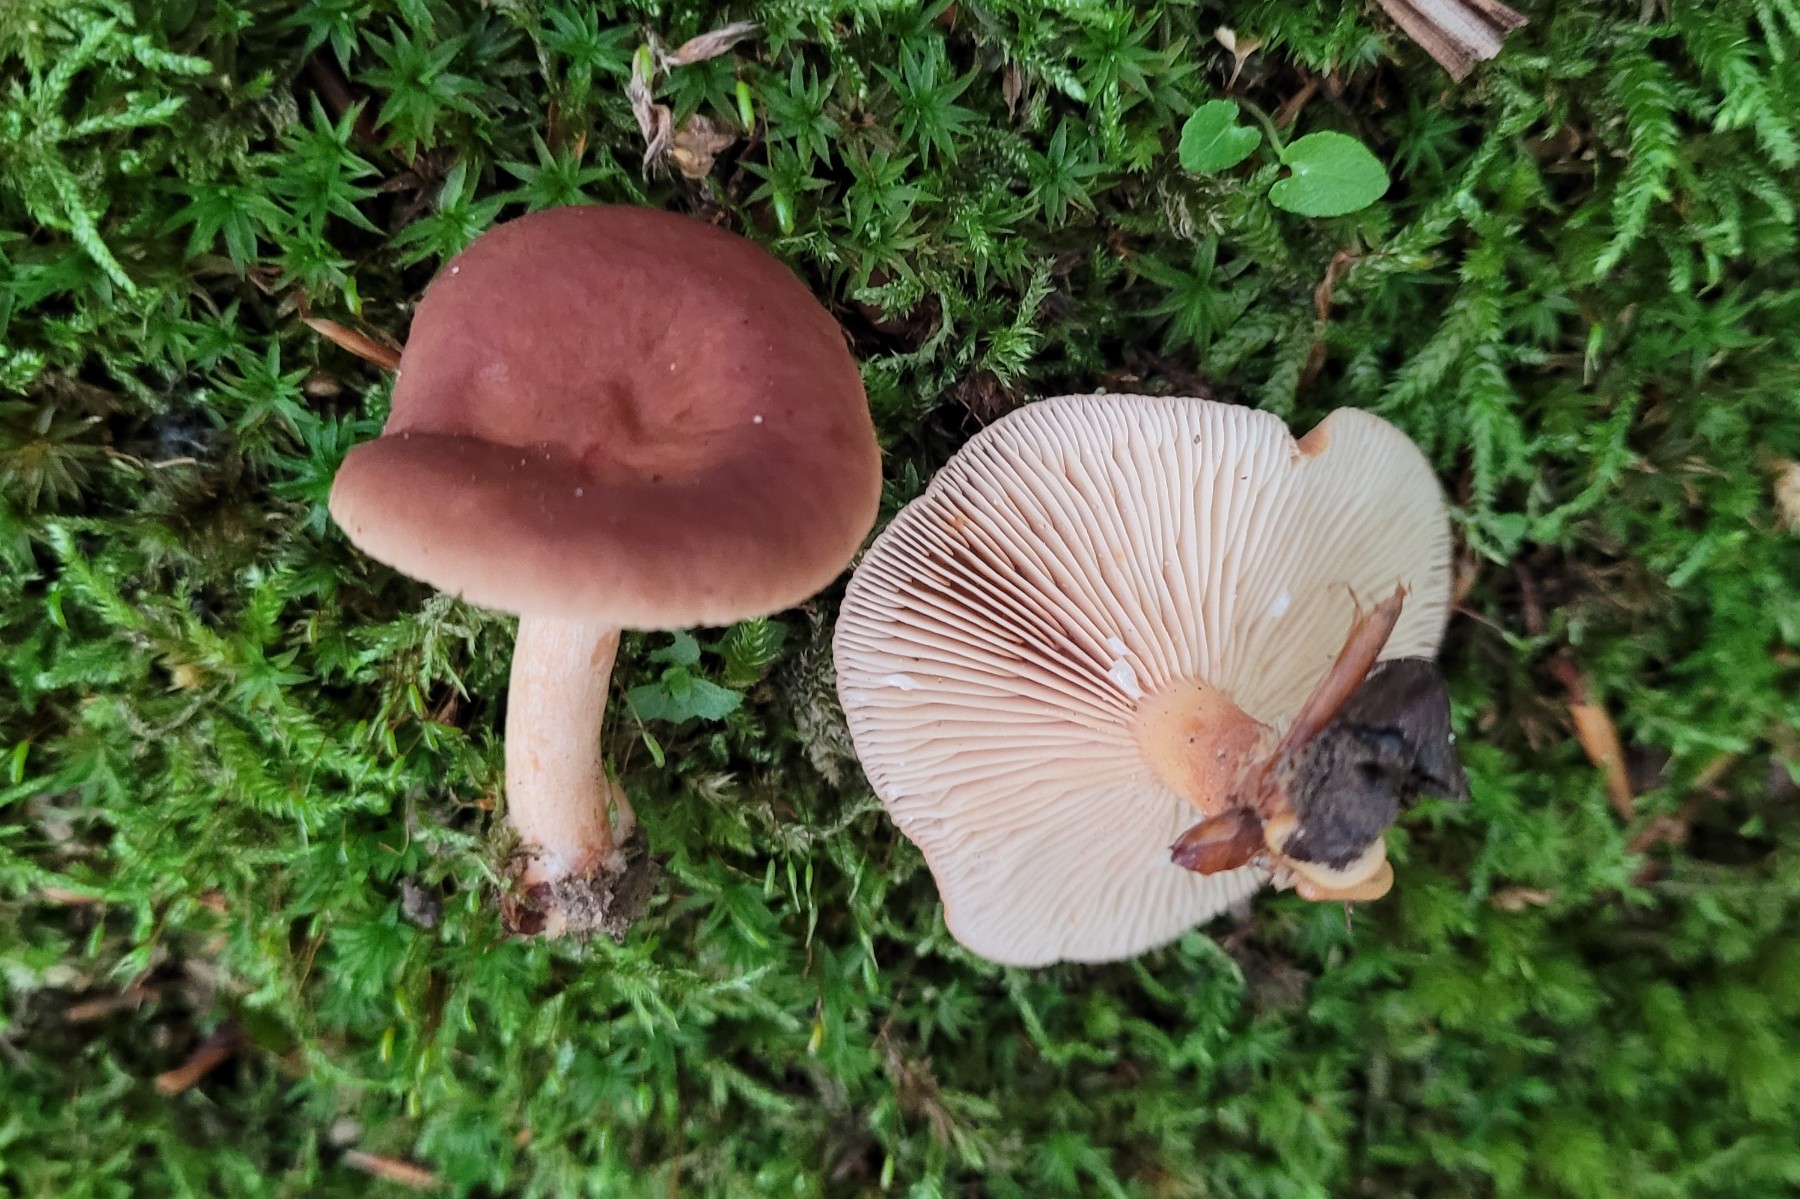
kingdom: Fungi
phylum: Basidiomycota
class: Agaricomycetes
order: Russulales
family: Russulaceae
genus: Lactarius
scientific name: Lactarius subdulcis
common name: sødlig mælkehat
